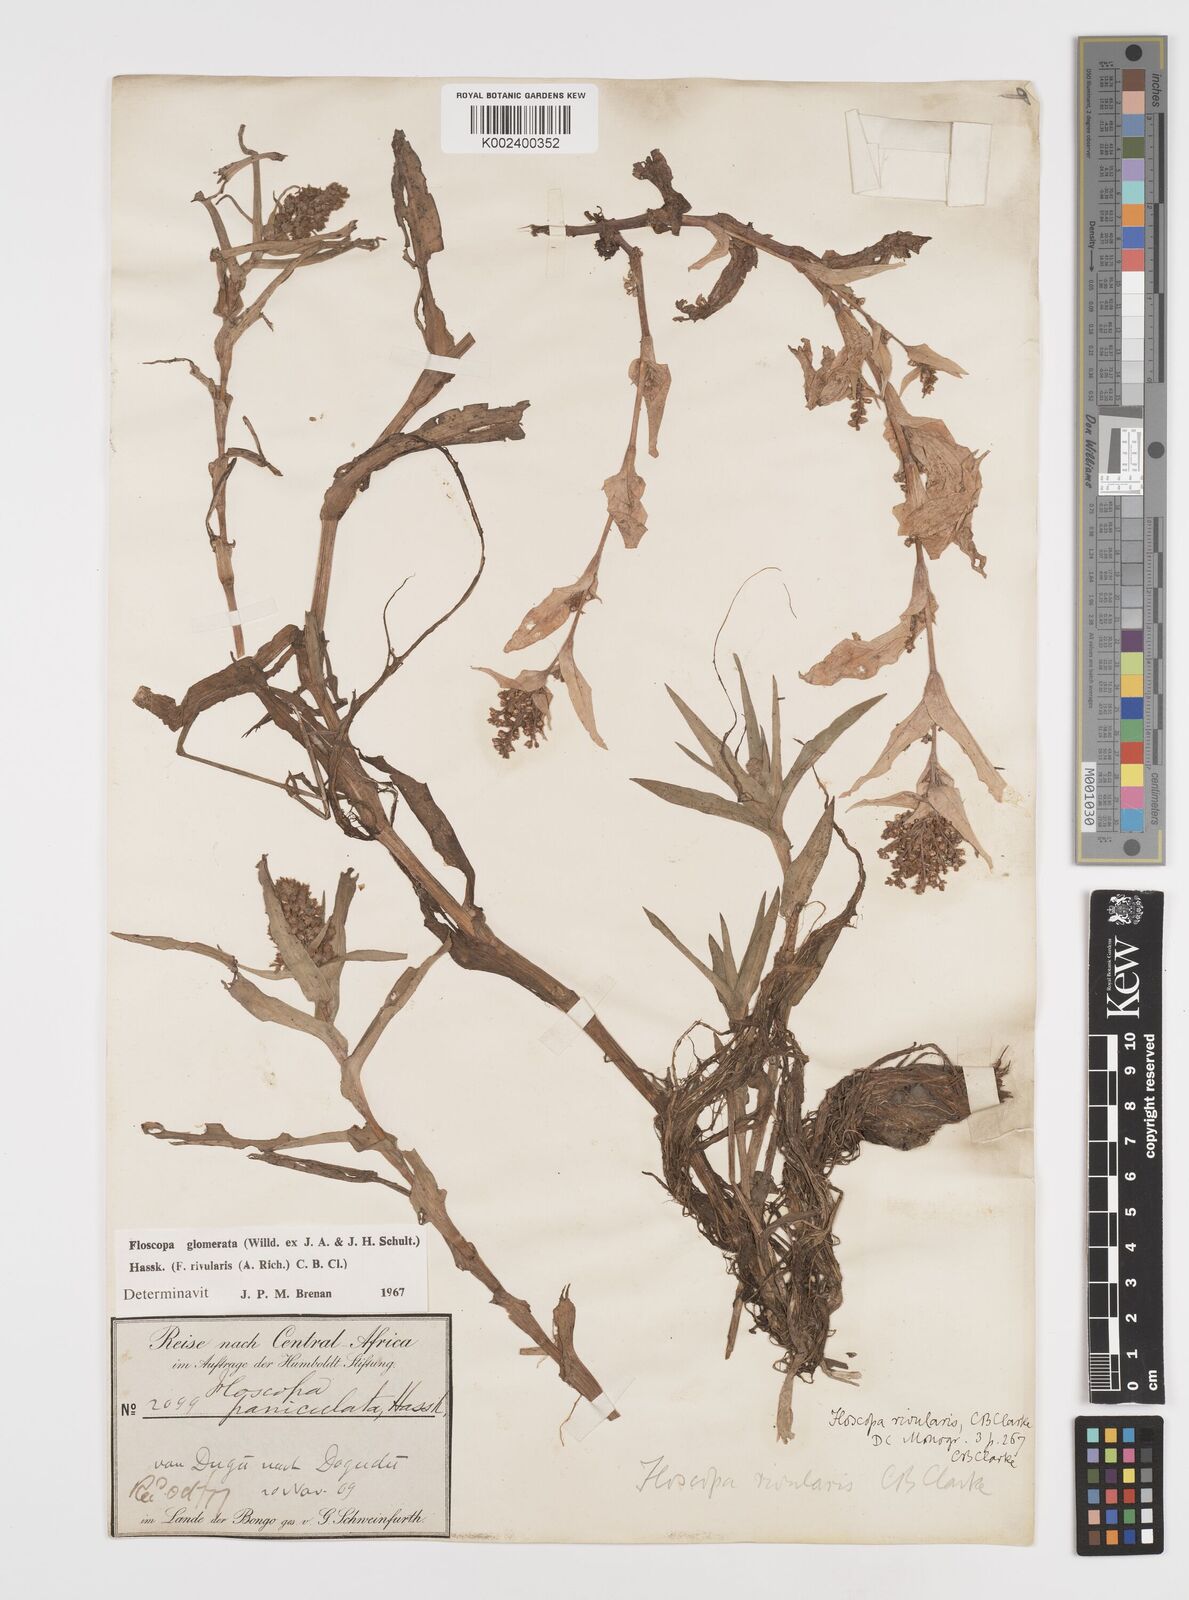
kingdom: Plantae
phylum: Tracheophyta
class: Liliopsida
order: Commelinales
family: Commelinaceae
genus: Floscopa
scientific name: Floscopa glomerata
